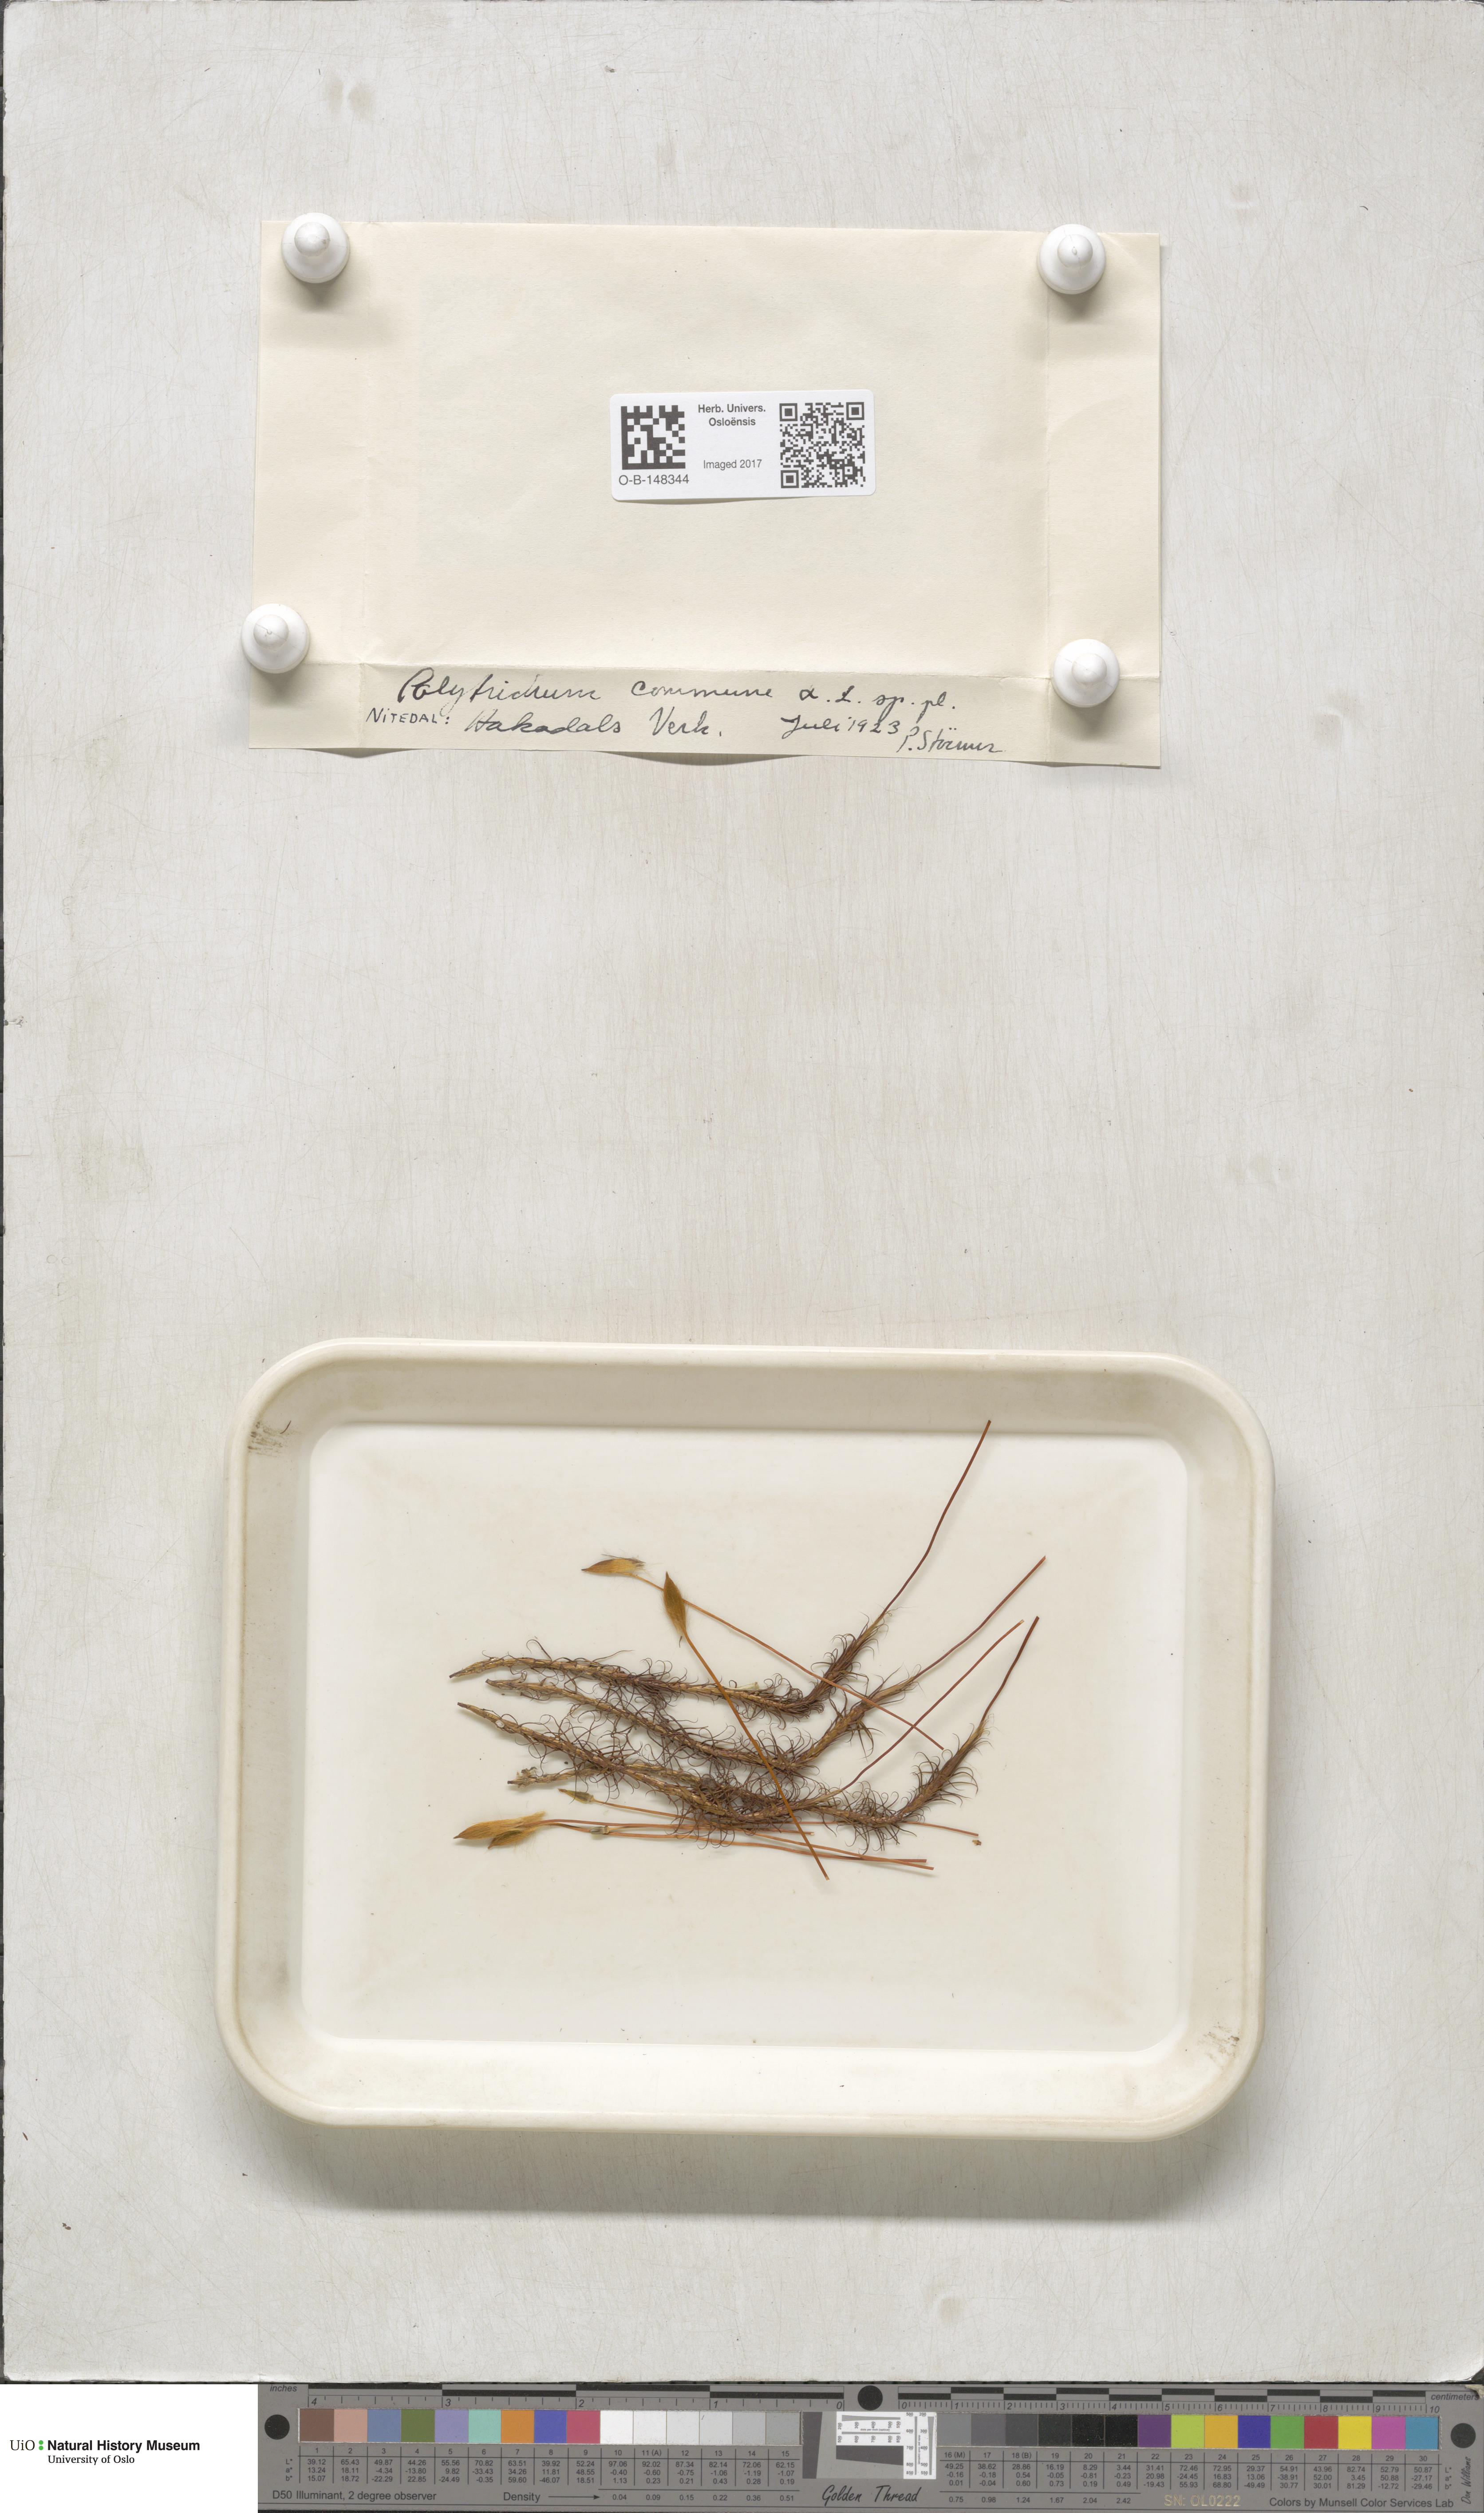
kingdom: Plantae
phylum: Bryophyta
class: Polytrichopsida
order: Polytrichales
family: Polytrichaceae
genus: Polytrichum
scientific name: Polytrichum commune
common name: Common haircap
